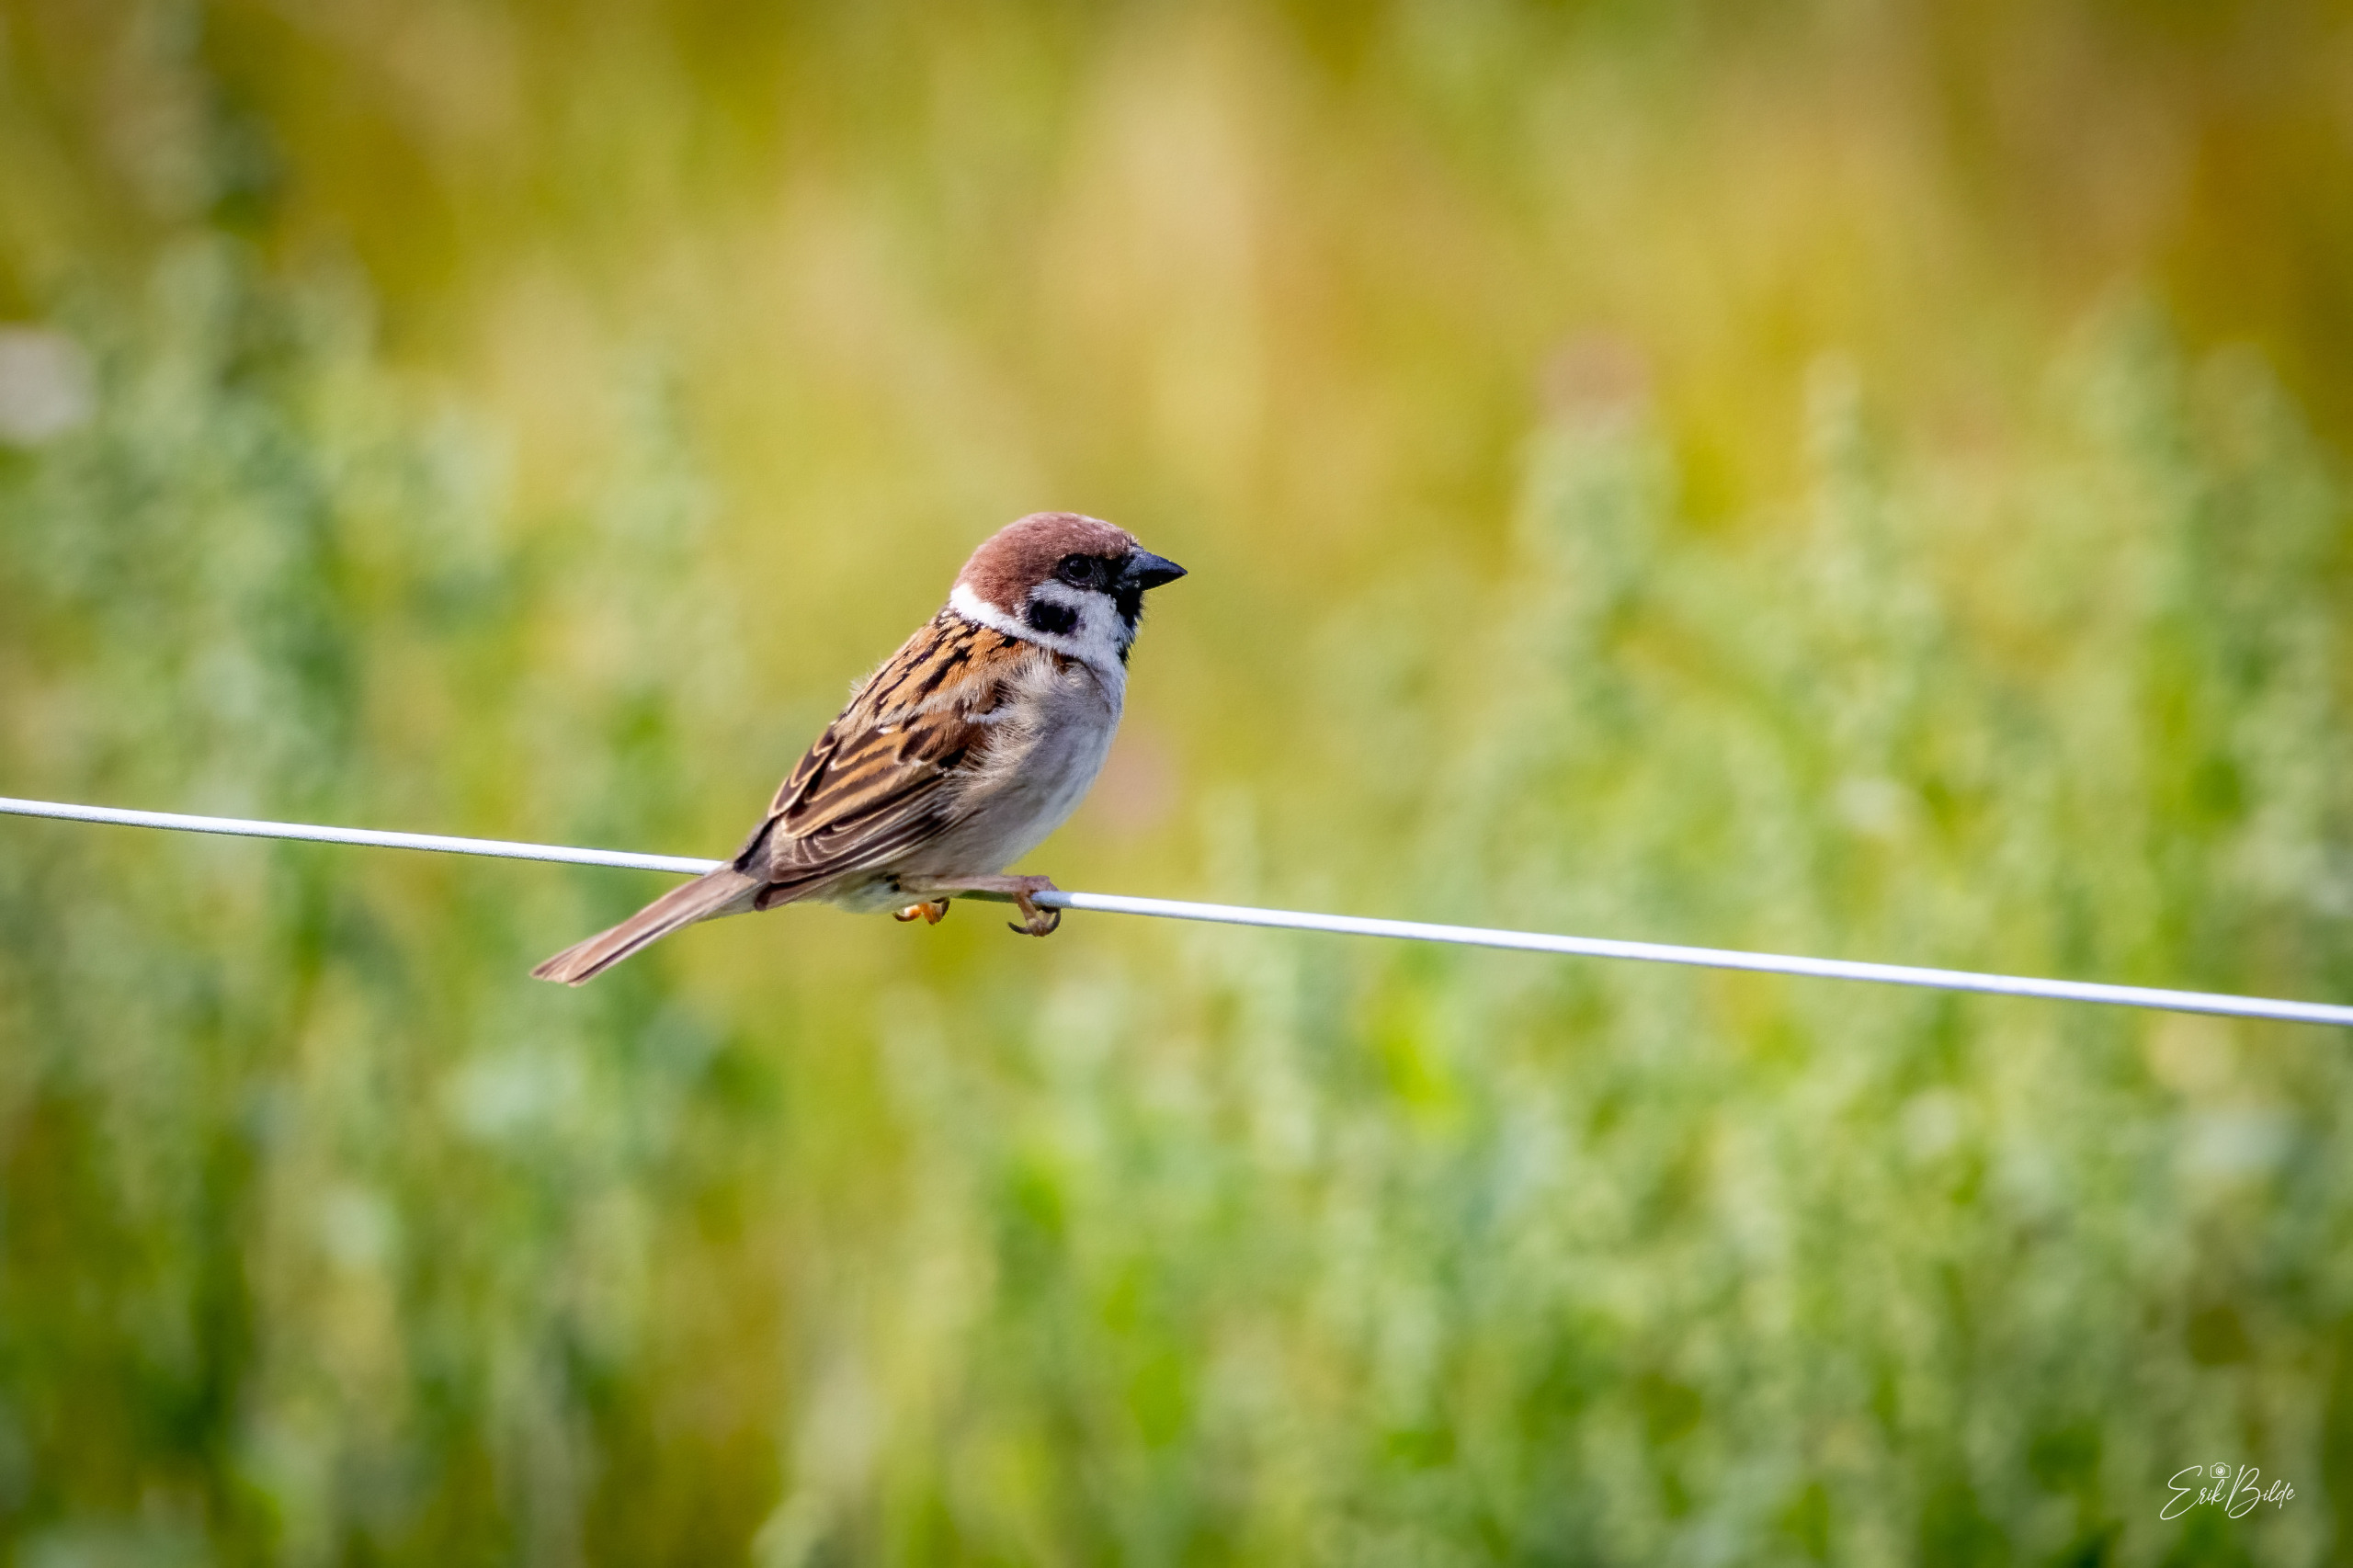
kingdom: Animalia
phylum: Chordata
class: Aves
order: Passeriformes
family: Passeridae
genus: Passer
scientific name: Passer montanus
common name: Skovspurv
